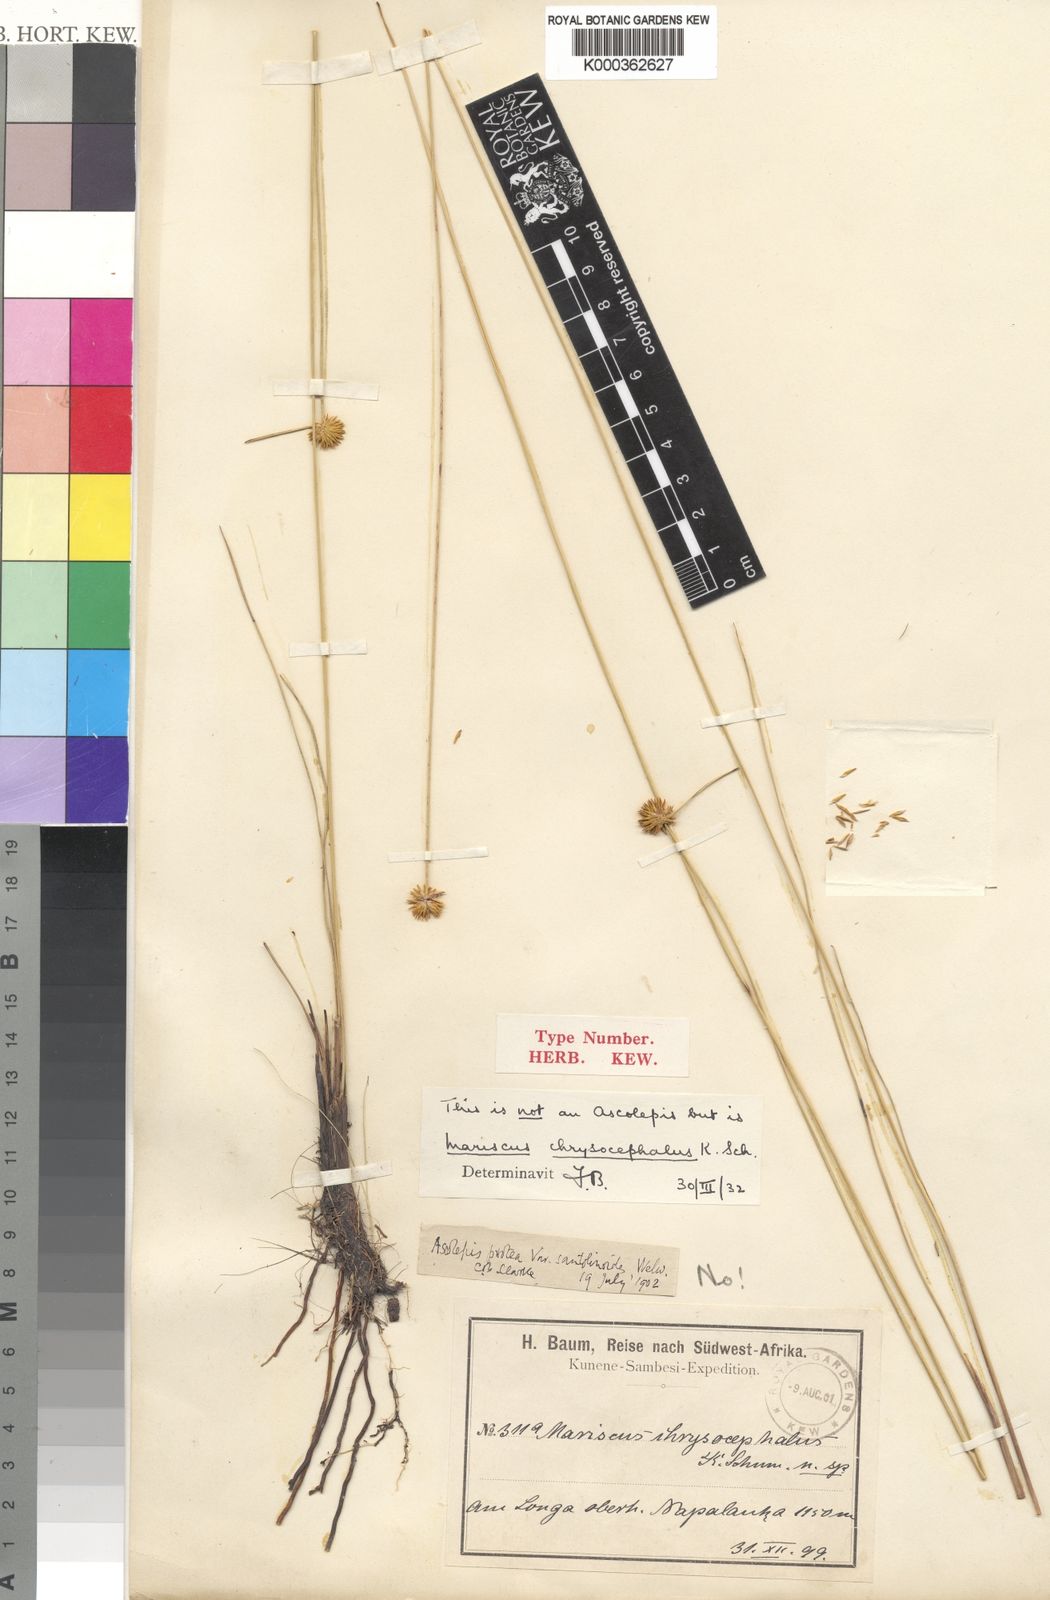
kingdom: Plantae
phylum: Tracheophyta
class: Liliopsida
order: Poales
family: Cyperaceae
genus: Cyperus
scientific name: Cyperus
